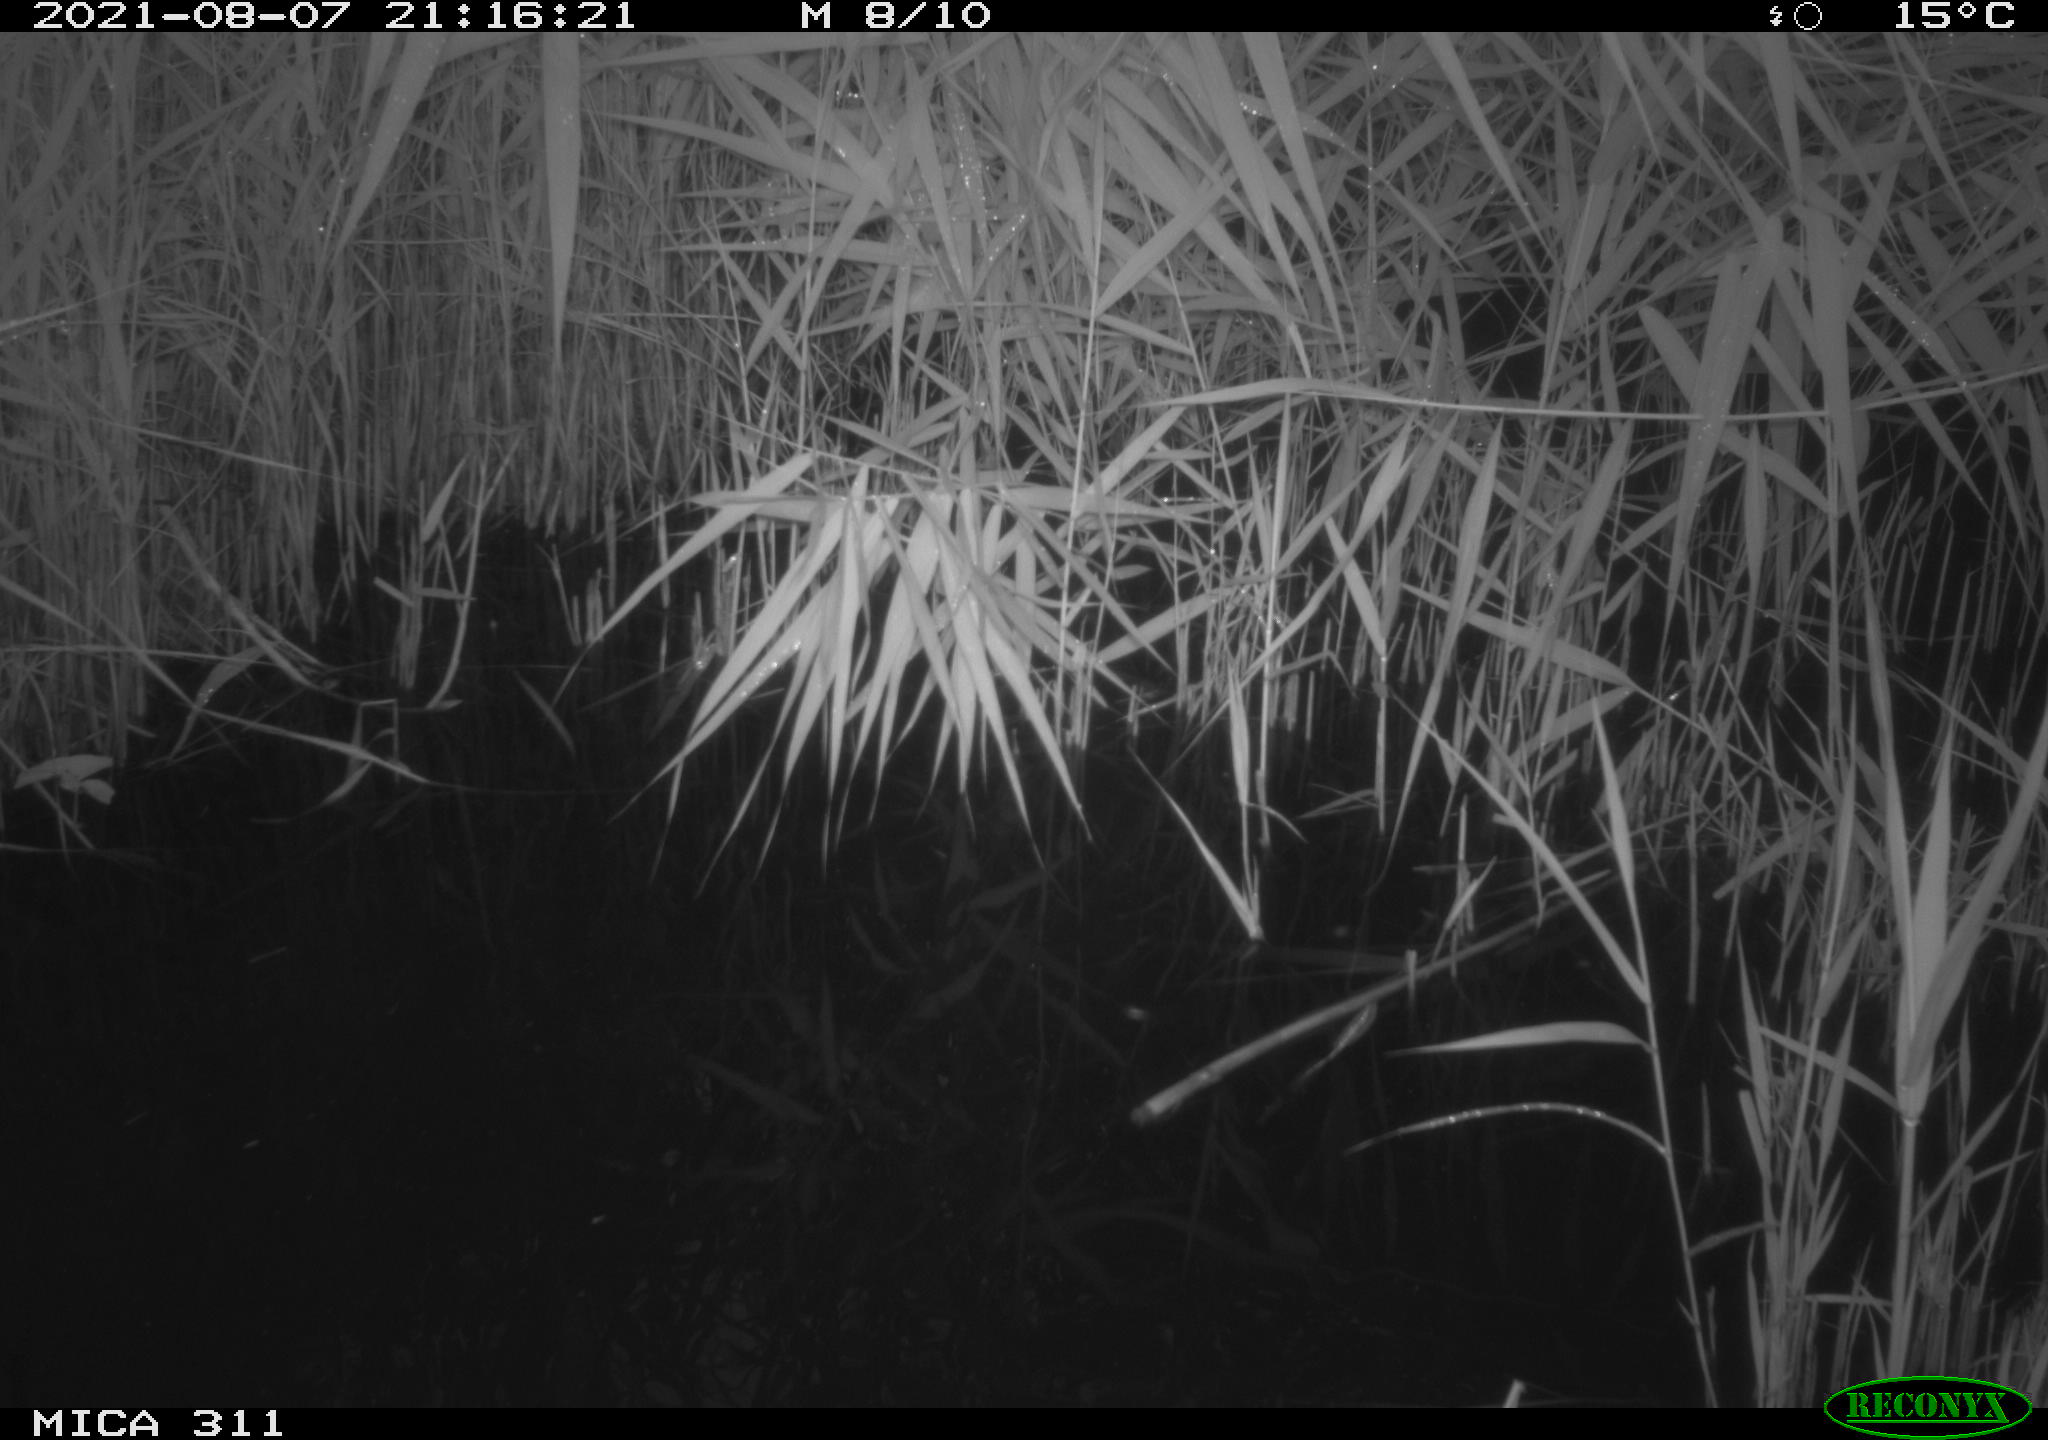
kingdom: Animalia
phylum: Chordata
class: Mammalia
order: Rodentia
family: Muridae
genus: Rattus
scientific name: Rattus norvegicus
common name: Brown rat
